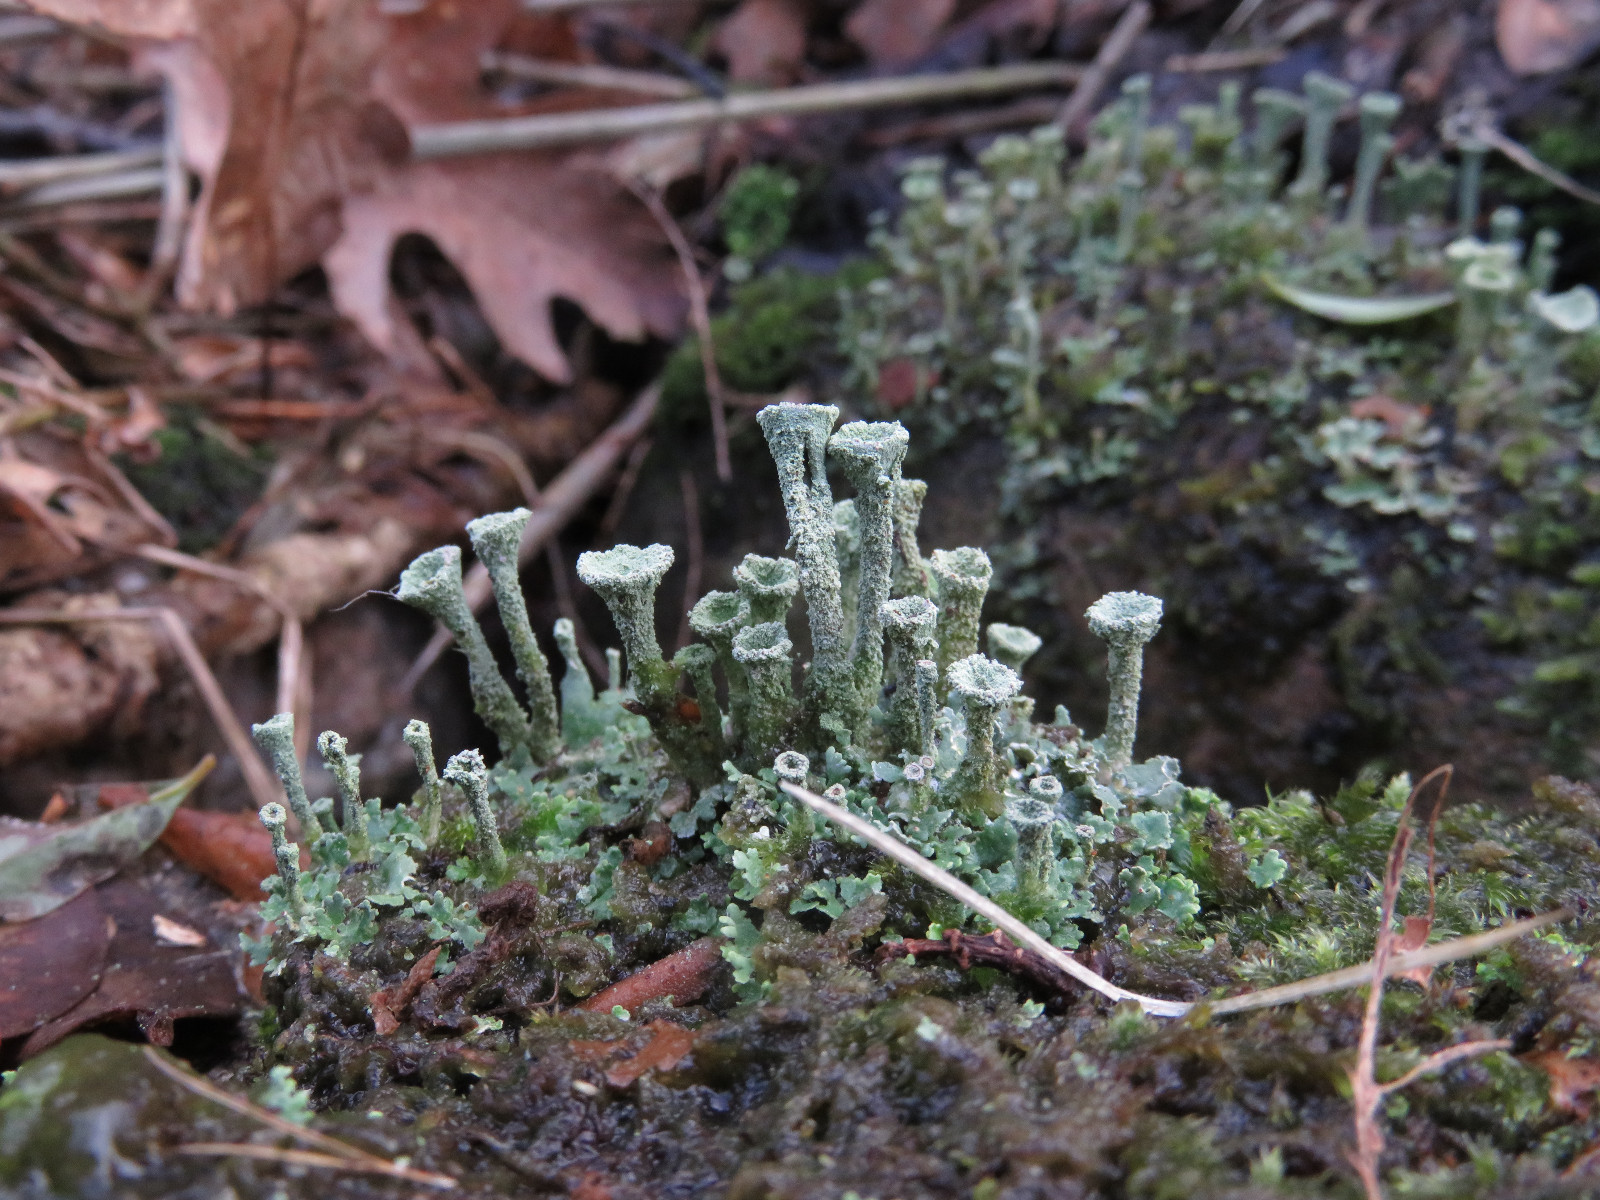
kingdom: Fungi
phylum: Ascomycota
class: Lecanoromycetes
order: Lecanorales
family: Cladoniaceae
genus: Cladonia
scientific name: Cladonia
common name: brungrøn bægerlav
